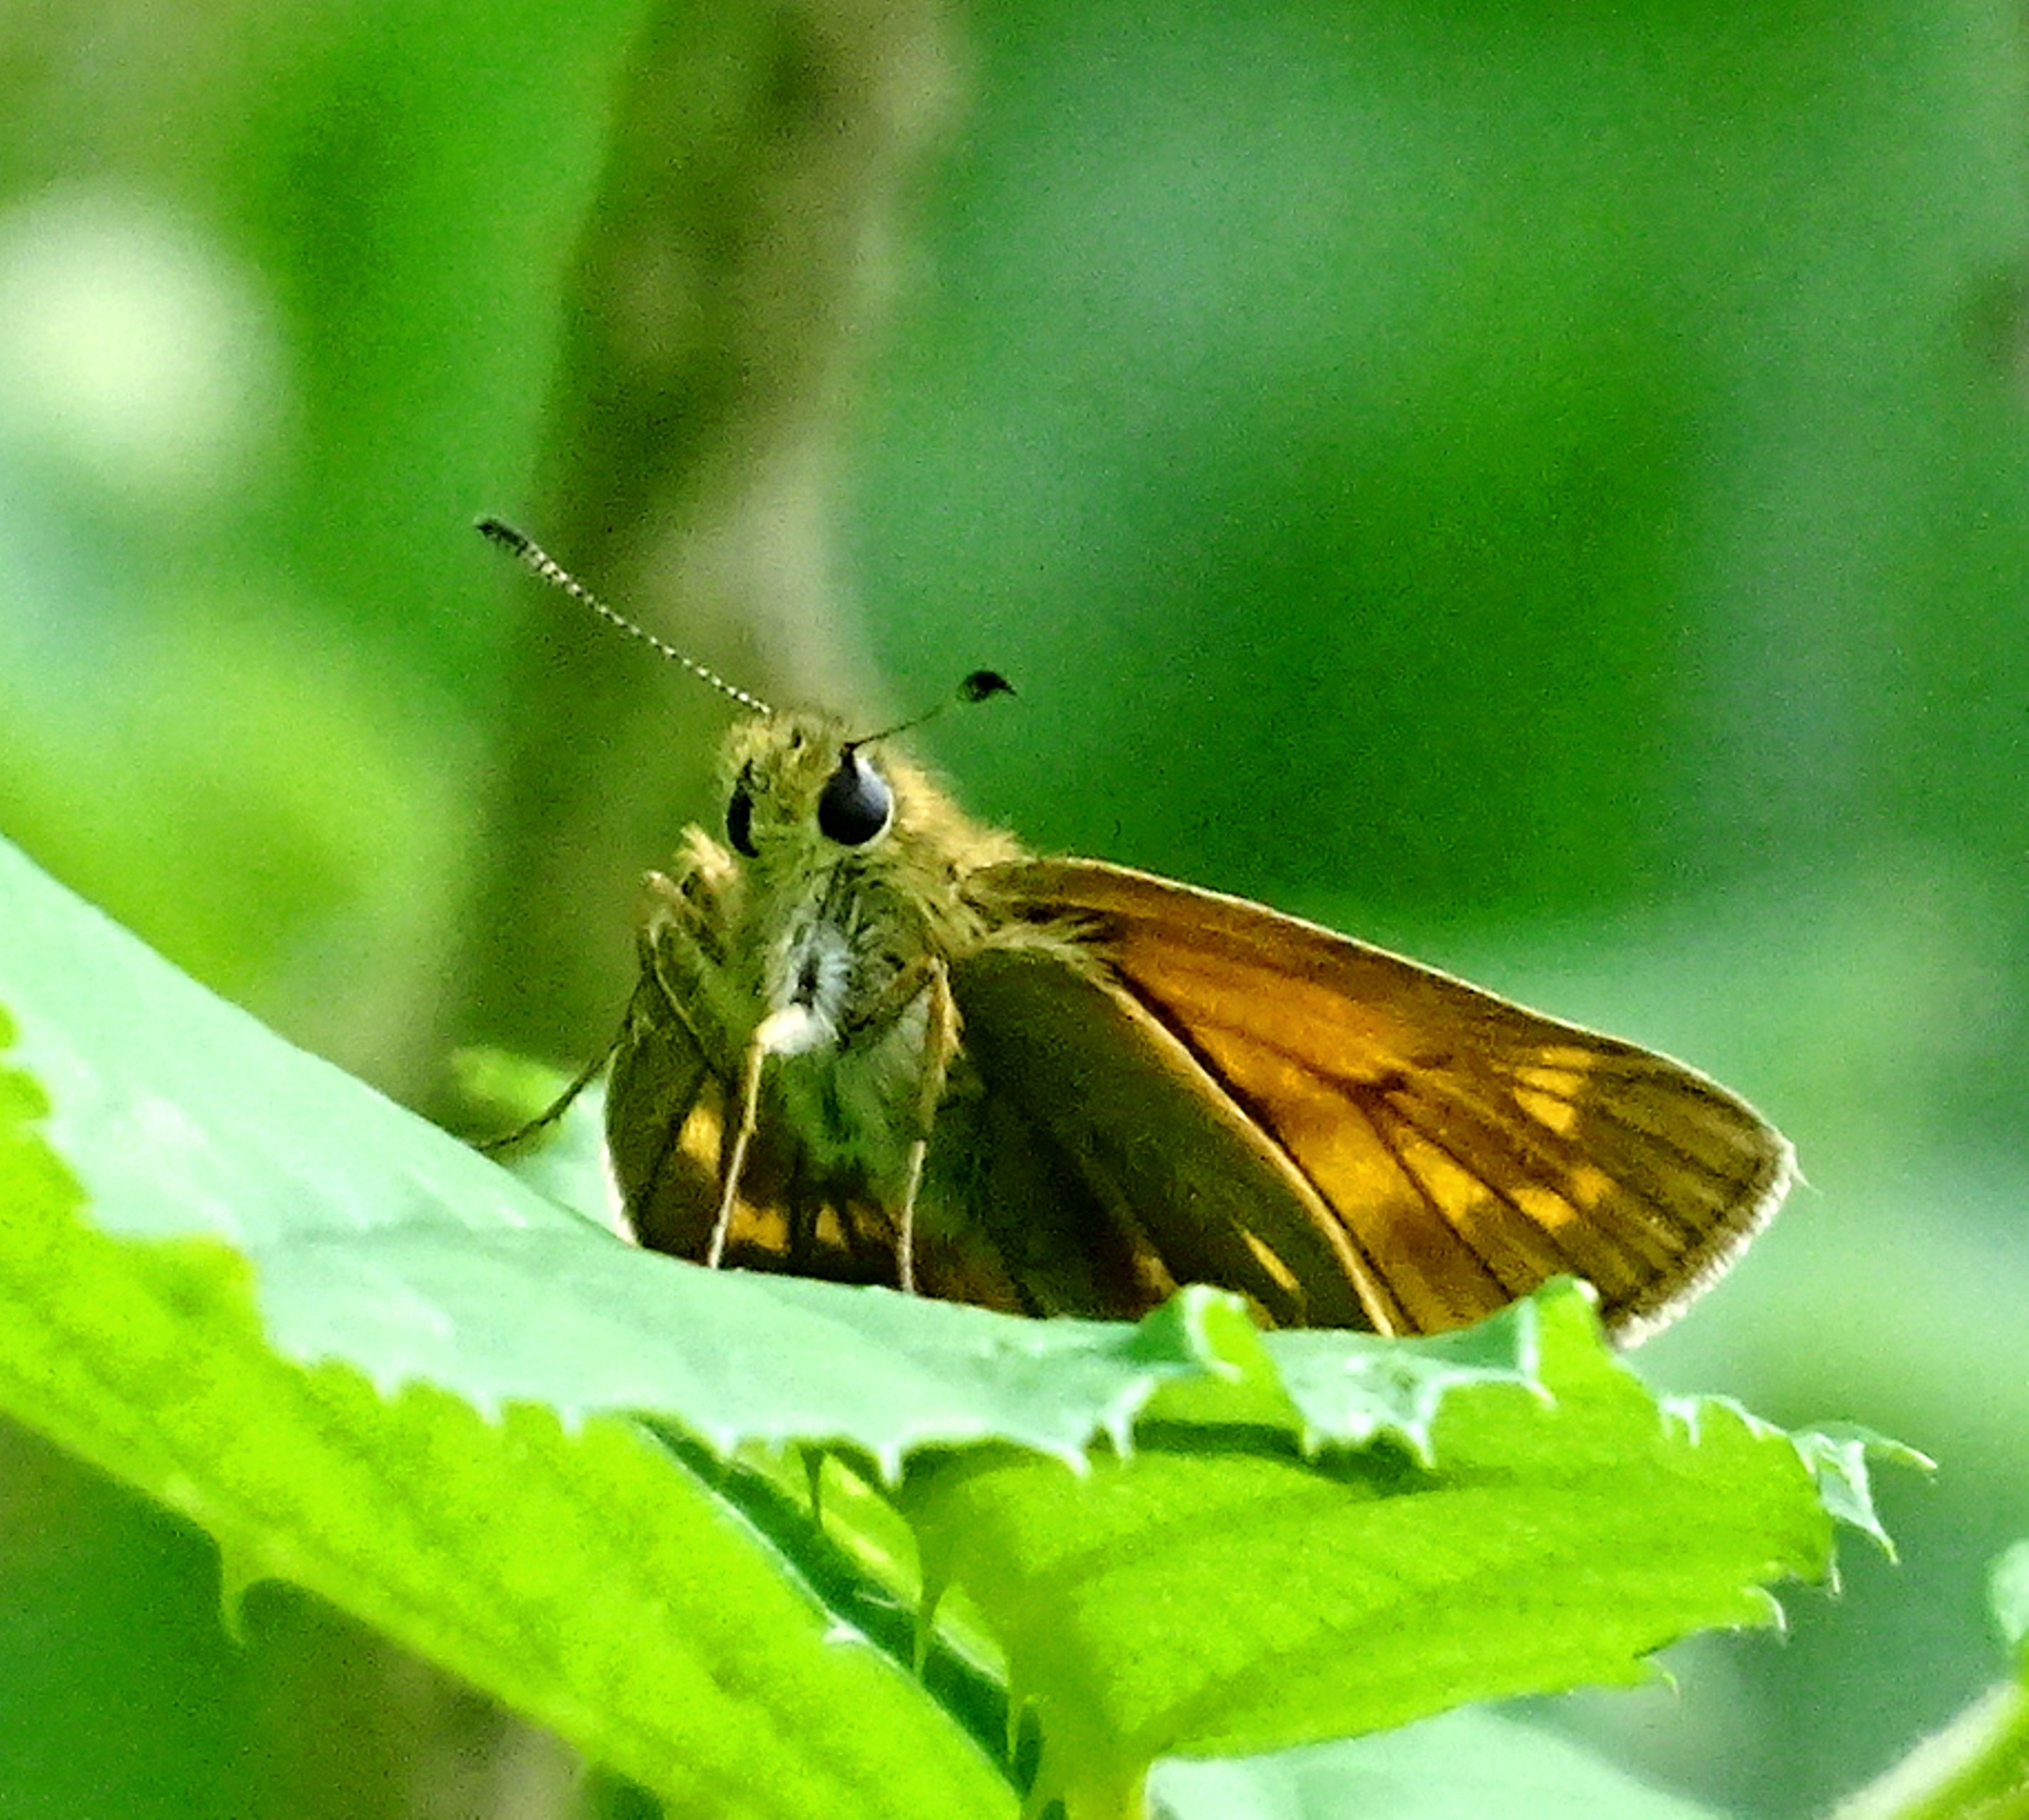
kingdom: Animalia
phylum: Arthropoda
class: Insecta
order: Lepidoptera
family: Hesperiidae
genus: Ochlodes
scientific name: Ochlodes venata
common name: Stor bredpande
